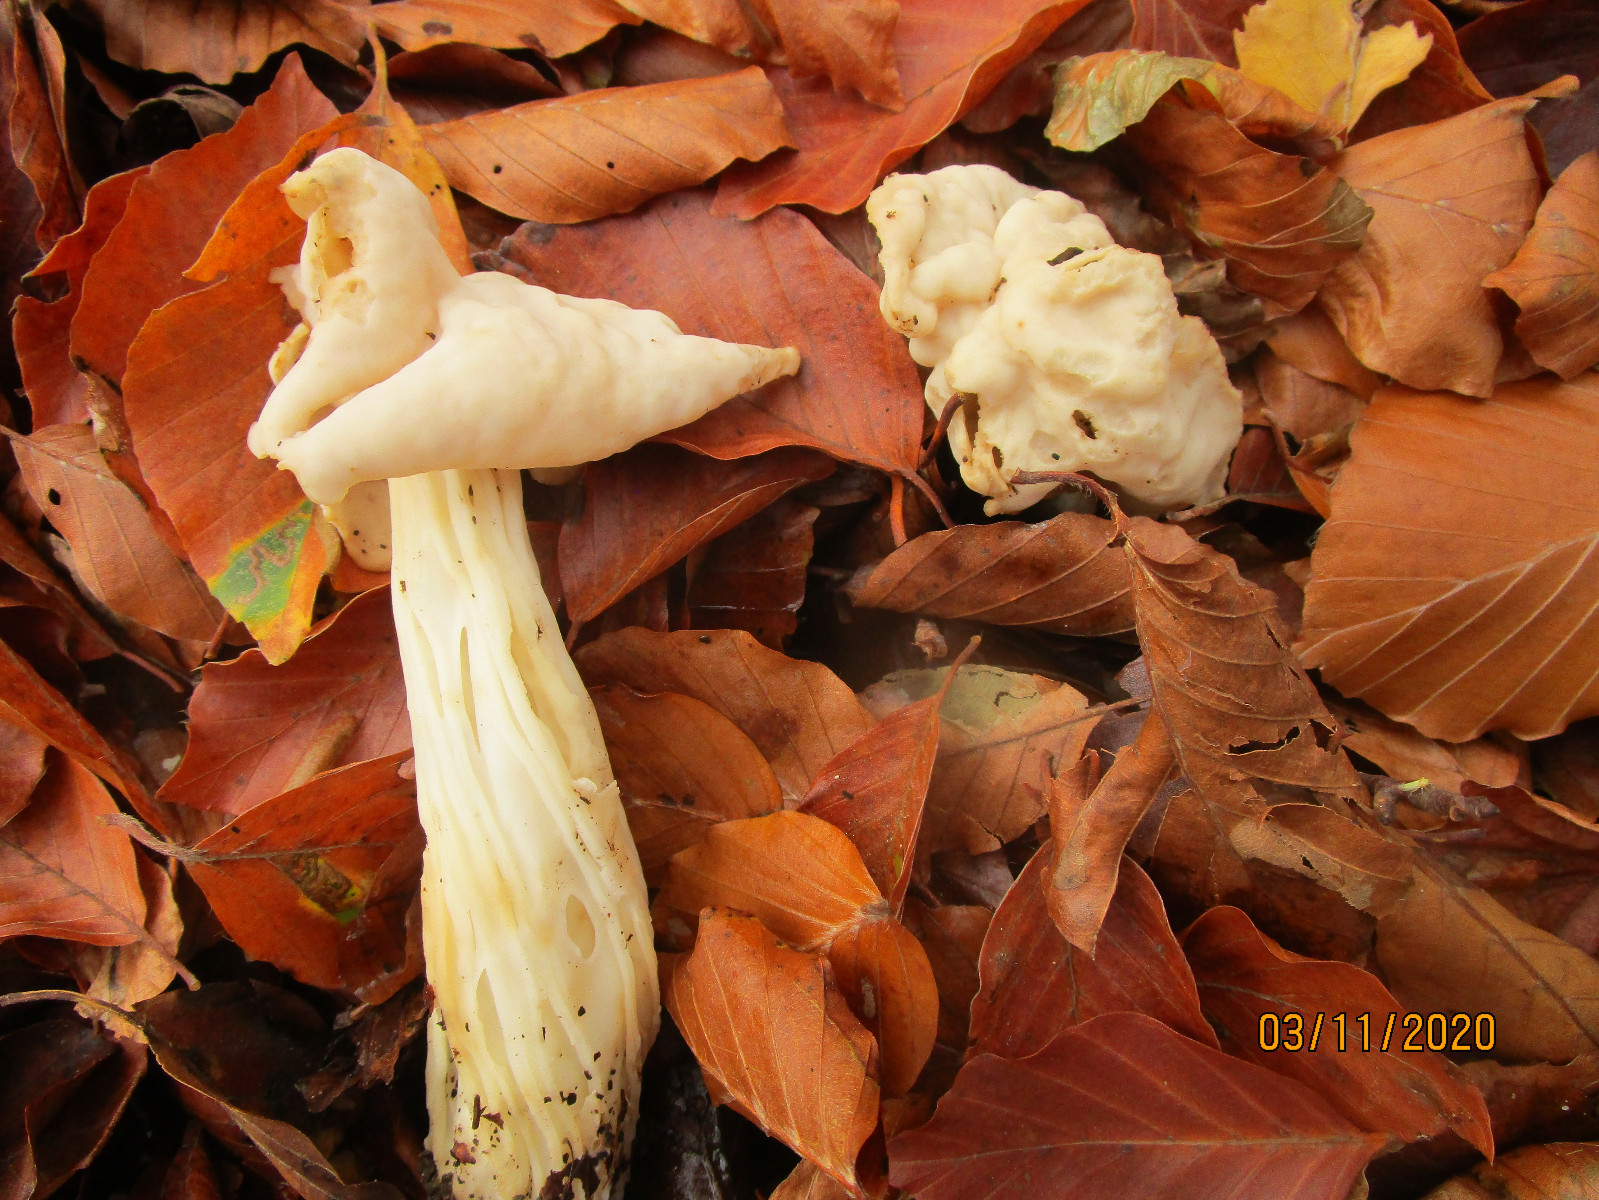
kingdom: Fungi
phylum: Ascomycota
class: Pezizomycetes
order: Pezizales
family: Helvellaceae
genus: Helvella
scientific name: Helvella crispa
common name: kruset foldhat
